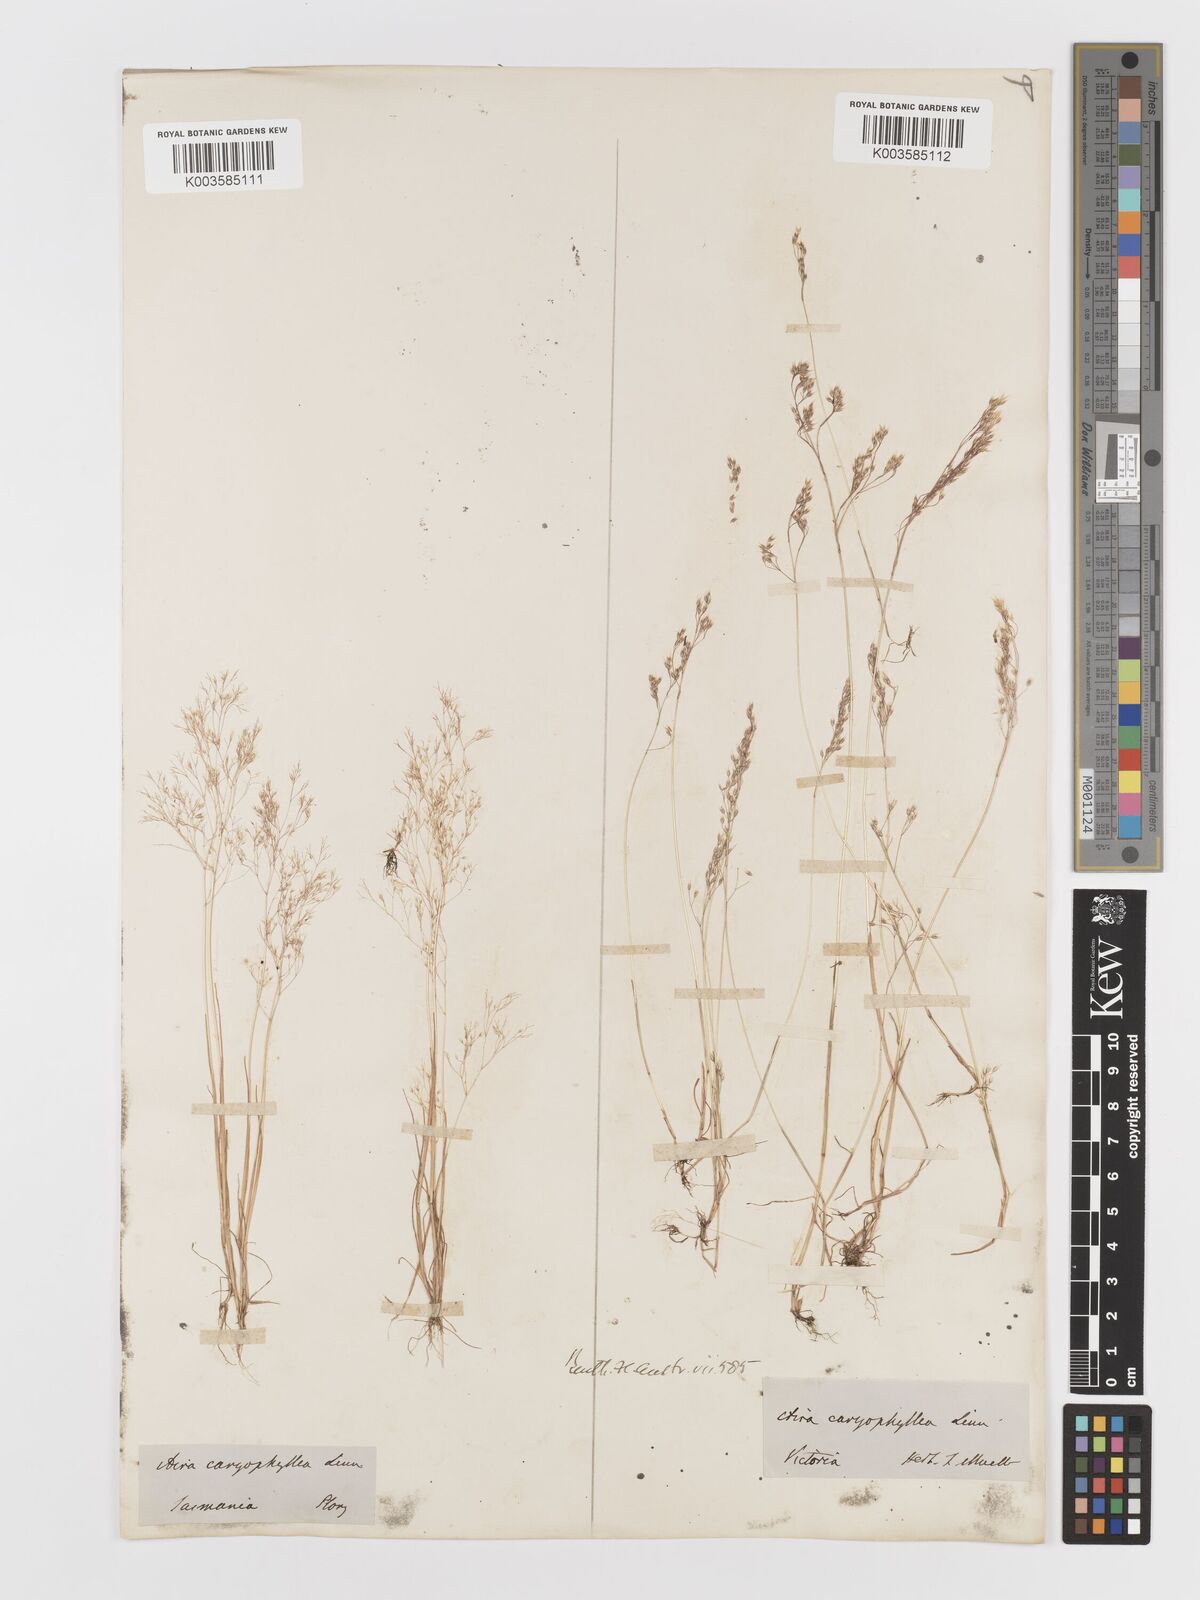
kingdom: Plantae
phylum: Tracheophyta
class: Liliopsida
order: Poales
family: Poaceae
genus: Aira
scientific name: Aira caryophyllea
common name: Silver hairgrass
